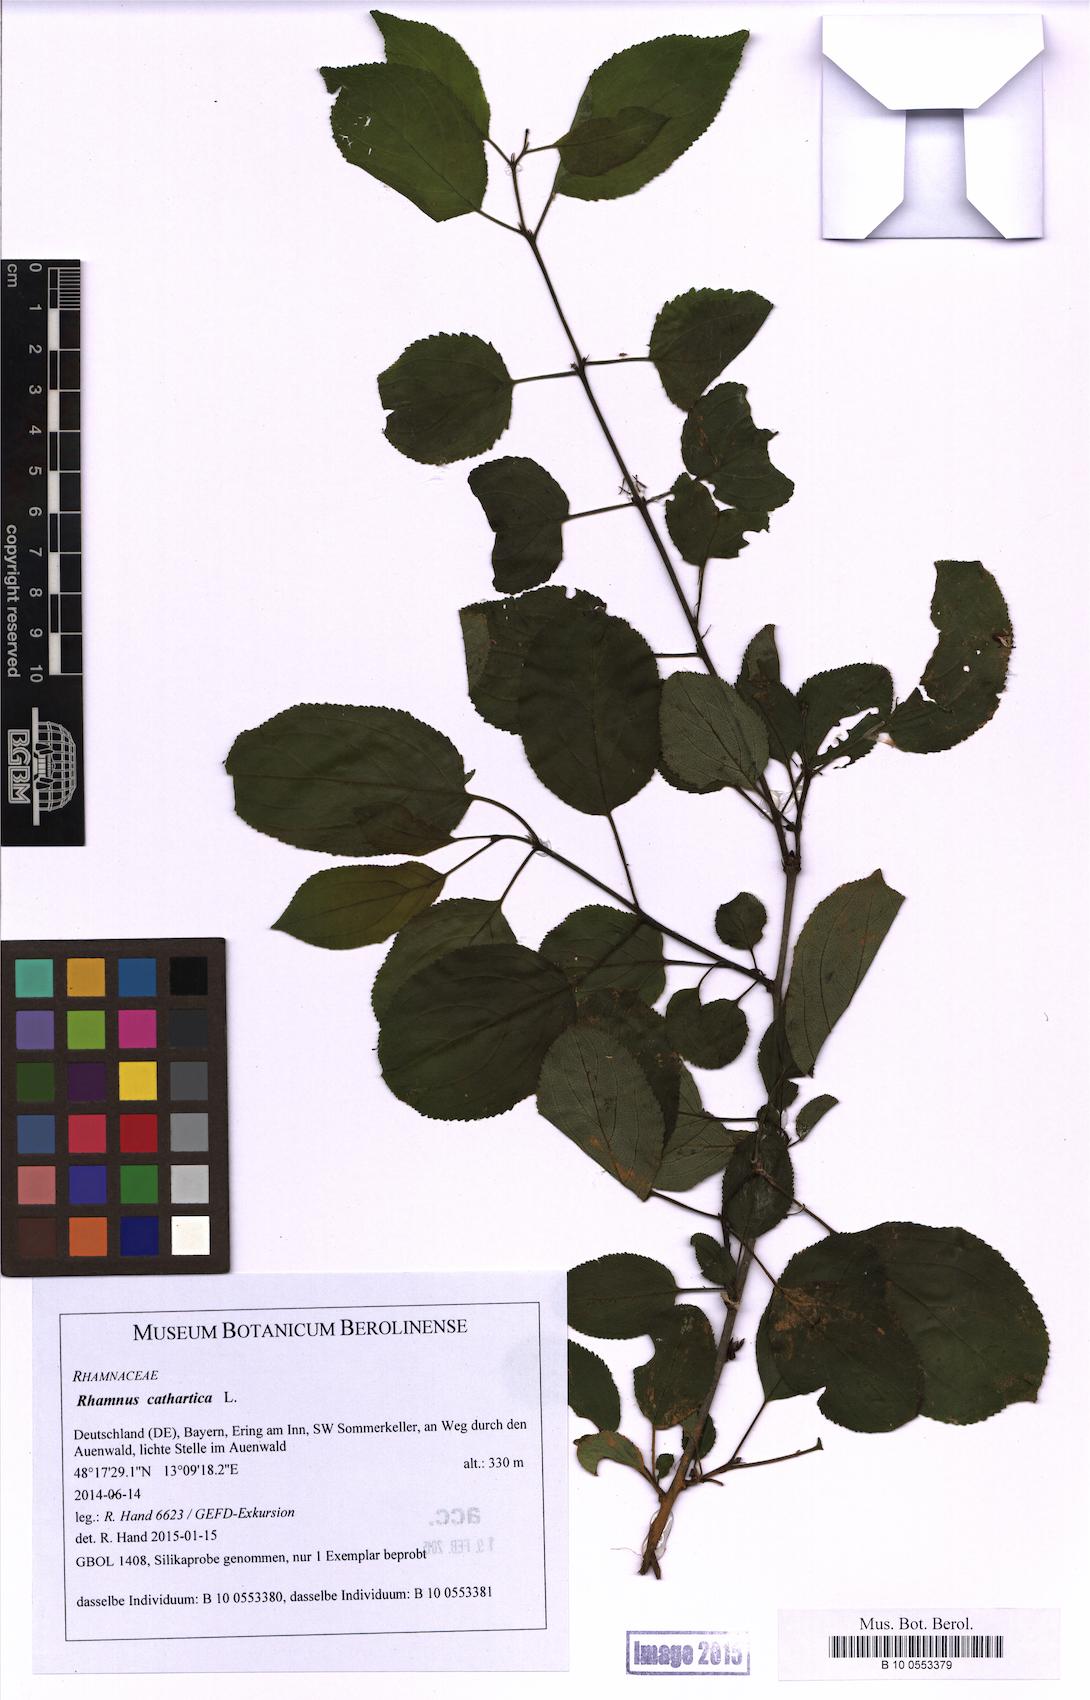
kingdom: Plantae
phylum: Tracheophyta
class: Magnoliopsida
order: Rosales
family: Rhamnaceae
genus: Rhamnus
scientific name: Rhamnus cathartica
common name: Common buckthorn
